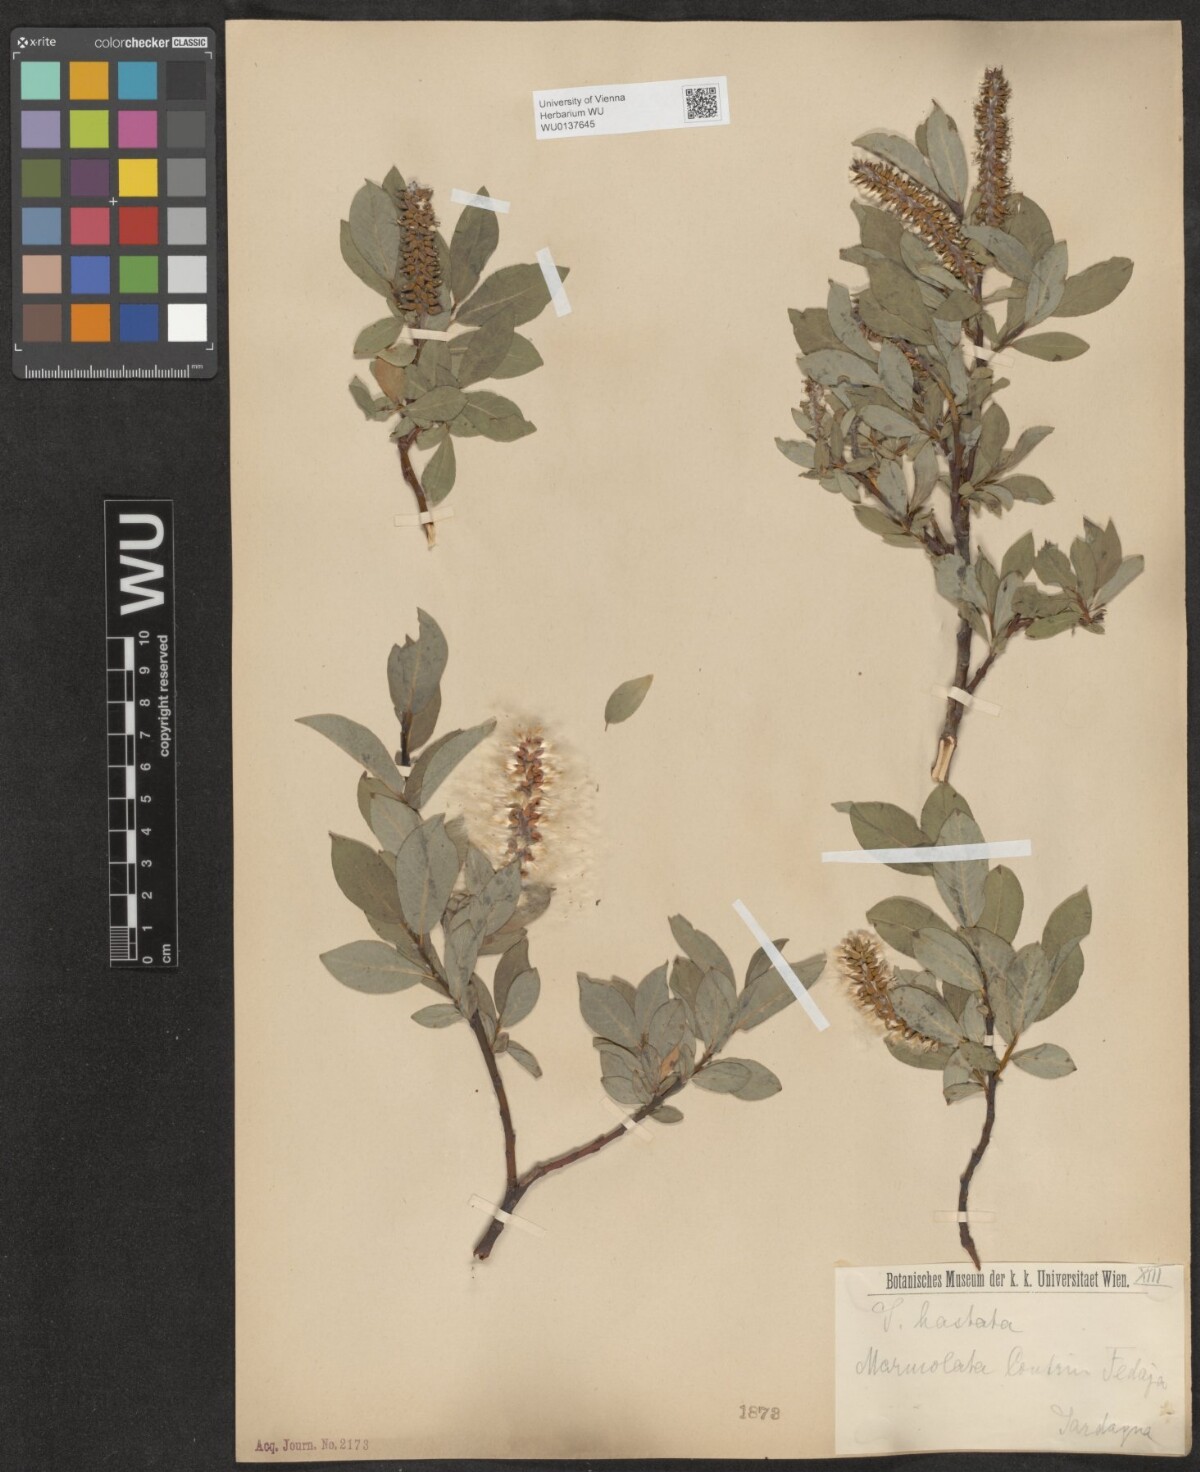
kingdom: Plantae
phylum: Tracheophyta
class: Magnoliopsida
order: Malpighiales
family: Salicaceae
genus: Salix
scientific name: Salix hastata
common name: Halberd willow
